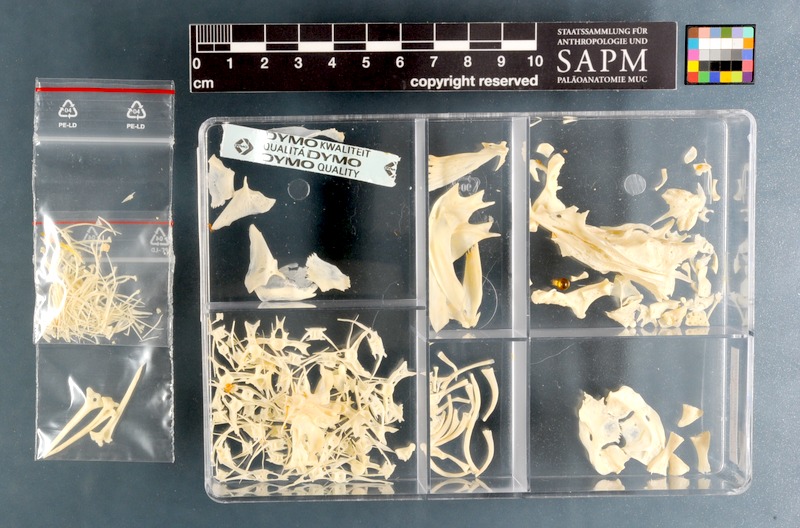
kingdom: Animalia
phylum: Chordata
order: Siluriformes
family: Plotosidae
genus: Plotosus
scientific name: Plotosus nkunga
